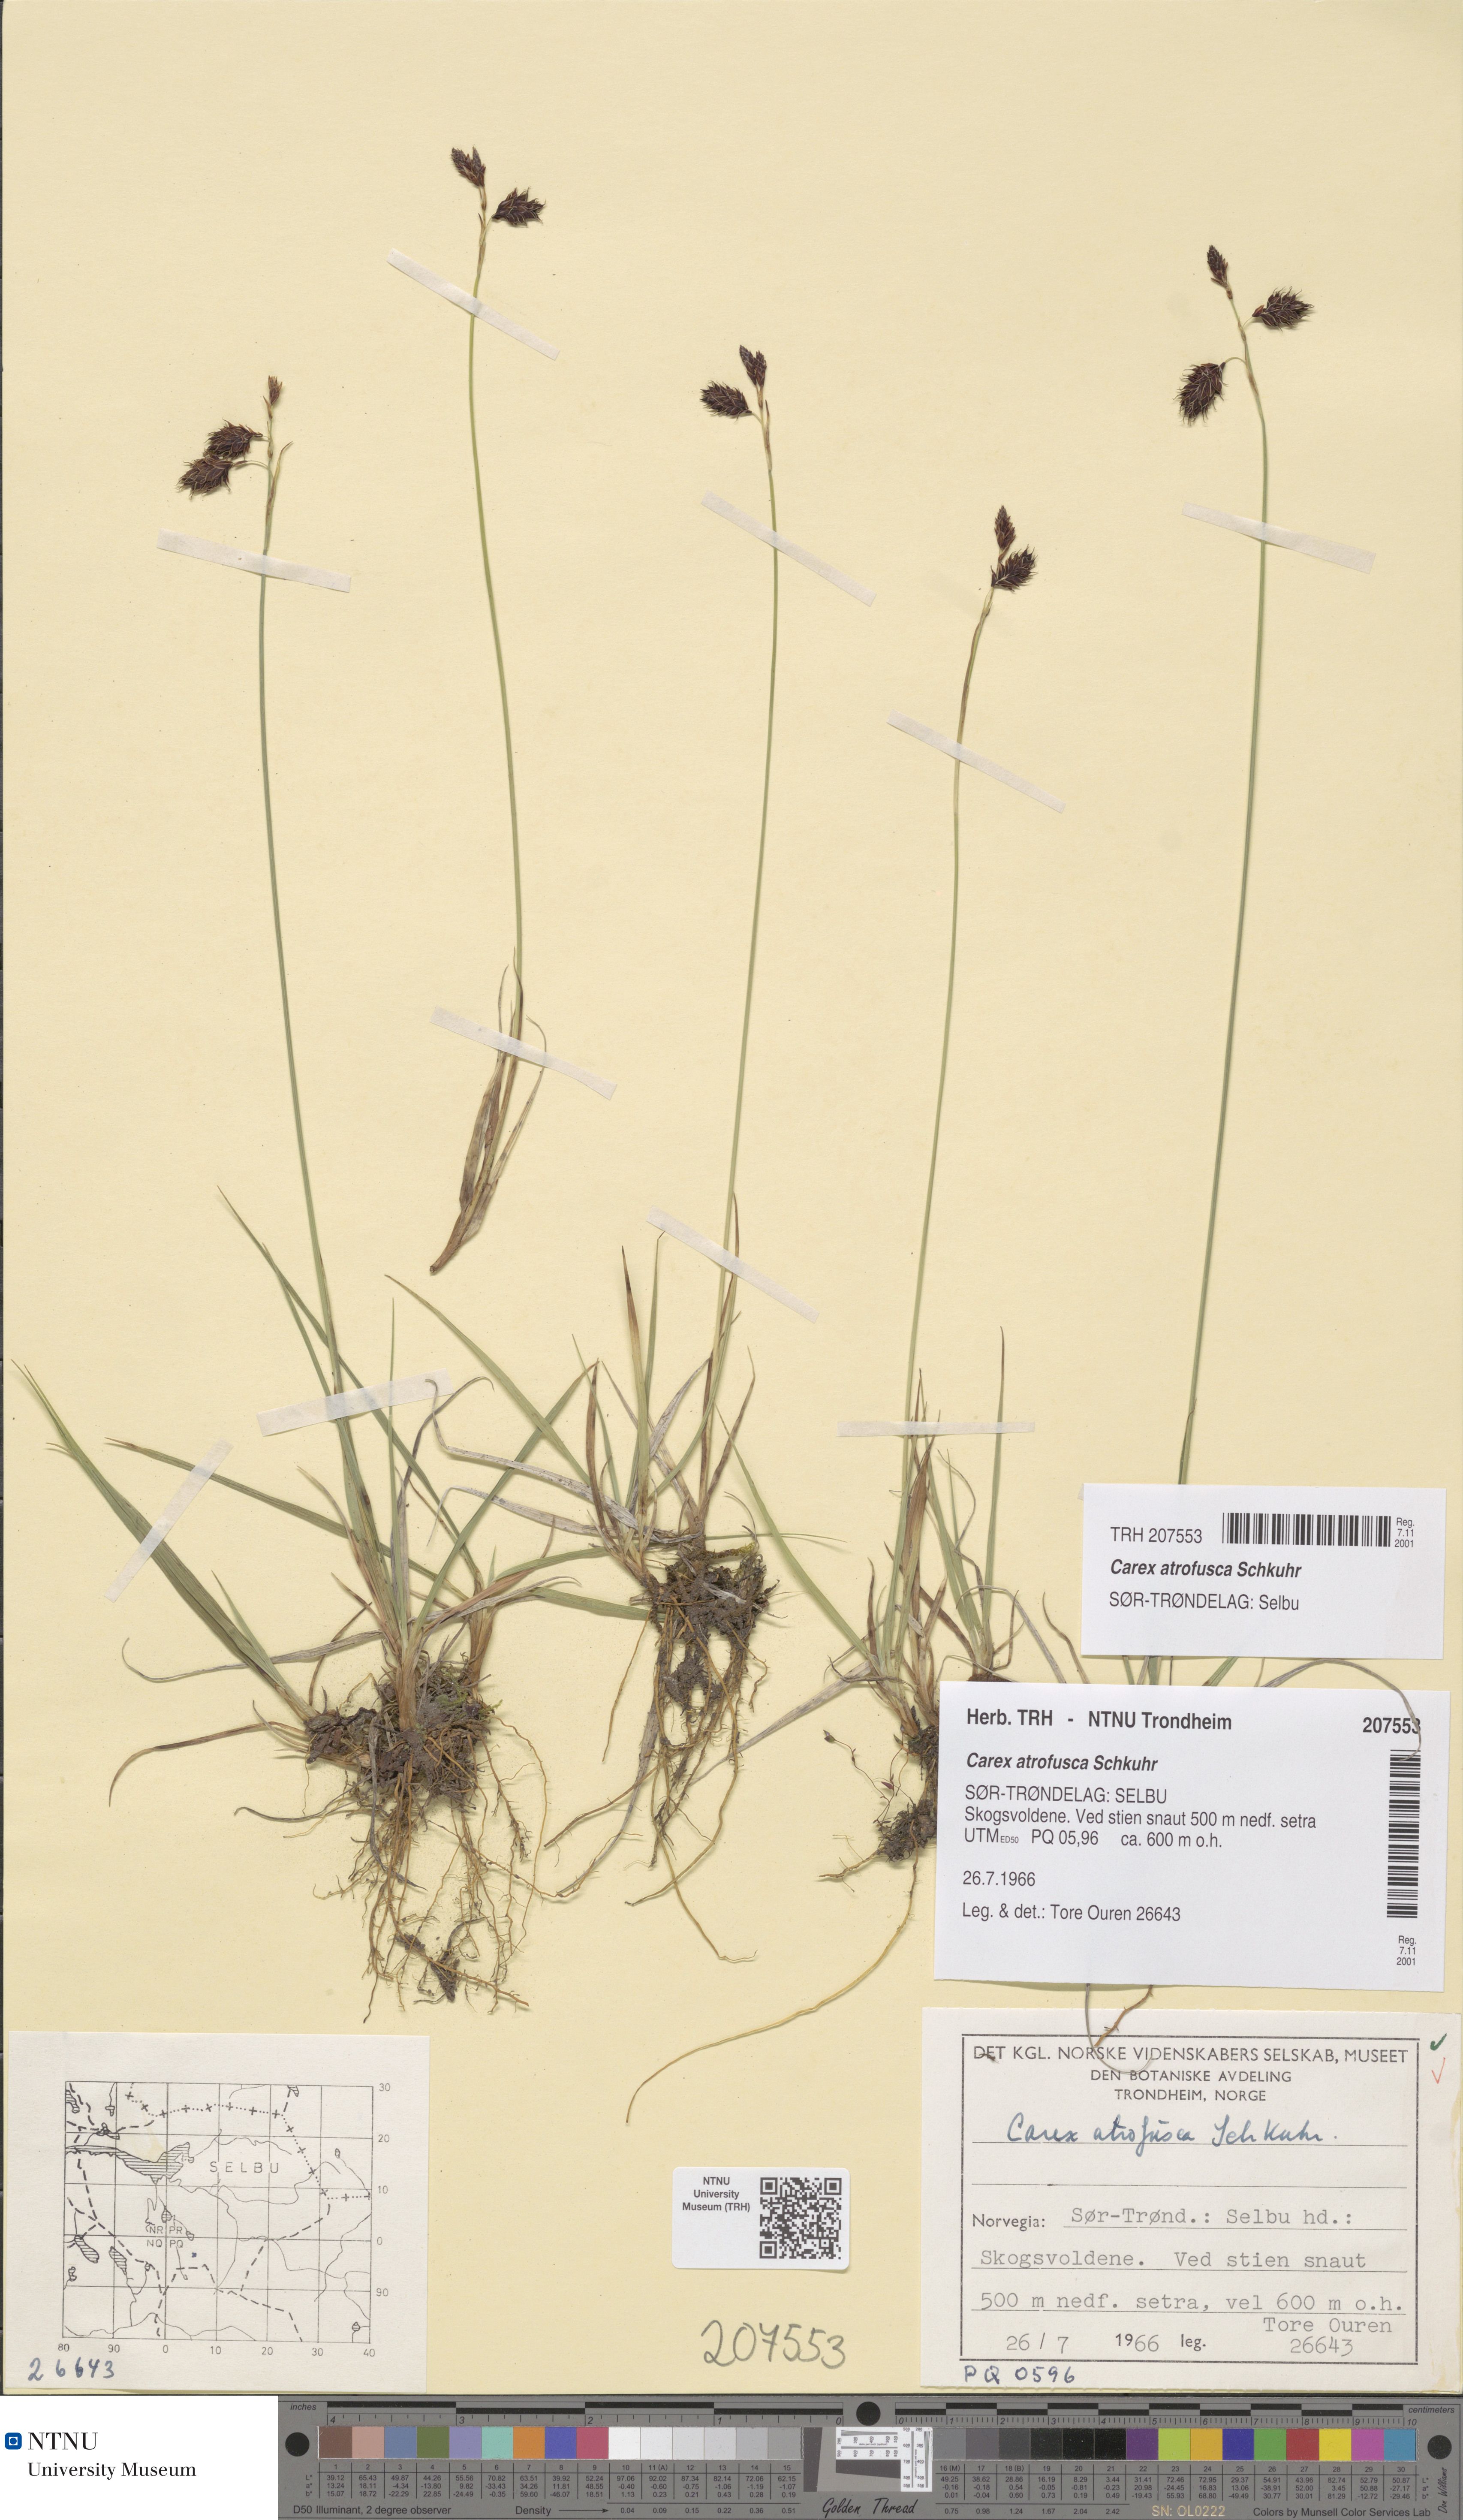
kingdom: Plantae
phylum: Tracheophyta
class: Liliopsida
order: Poales
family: Cyperaceae
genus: Carex
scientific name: Carex atrofusca
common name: Scorched alpine-sedge
